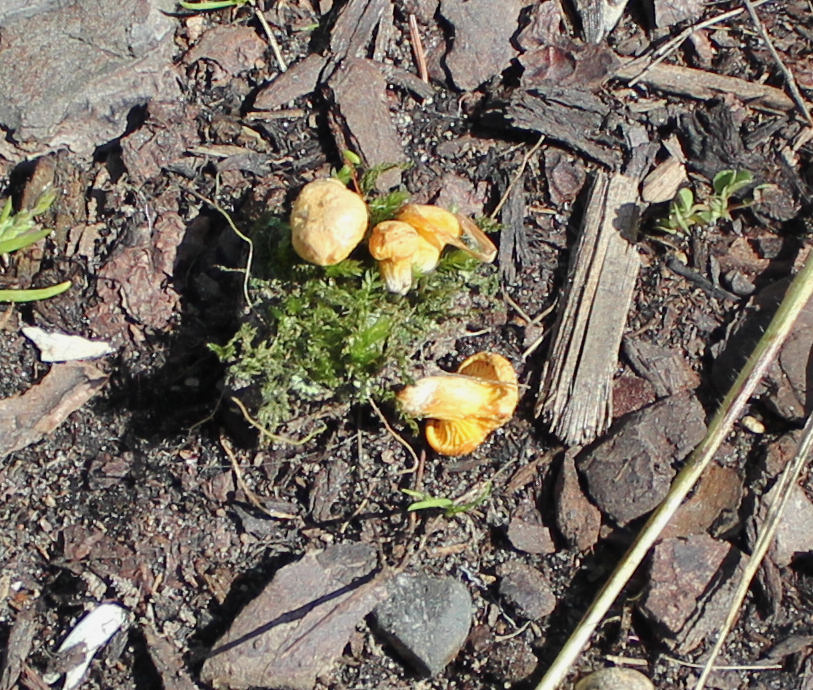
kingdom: Fungi
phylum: Basidiomycota
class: Agaricomycetes
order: Cantharellales
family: Hydnaceae
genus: Cantharellus
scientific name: Cantharellus cibarius
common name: almindelig kantarel
